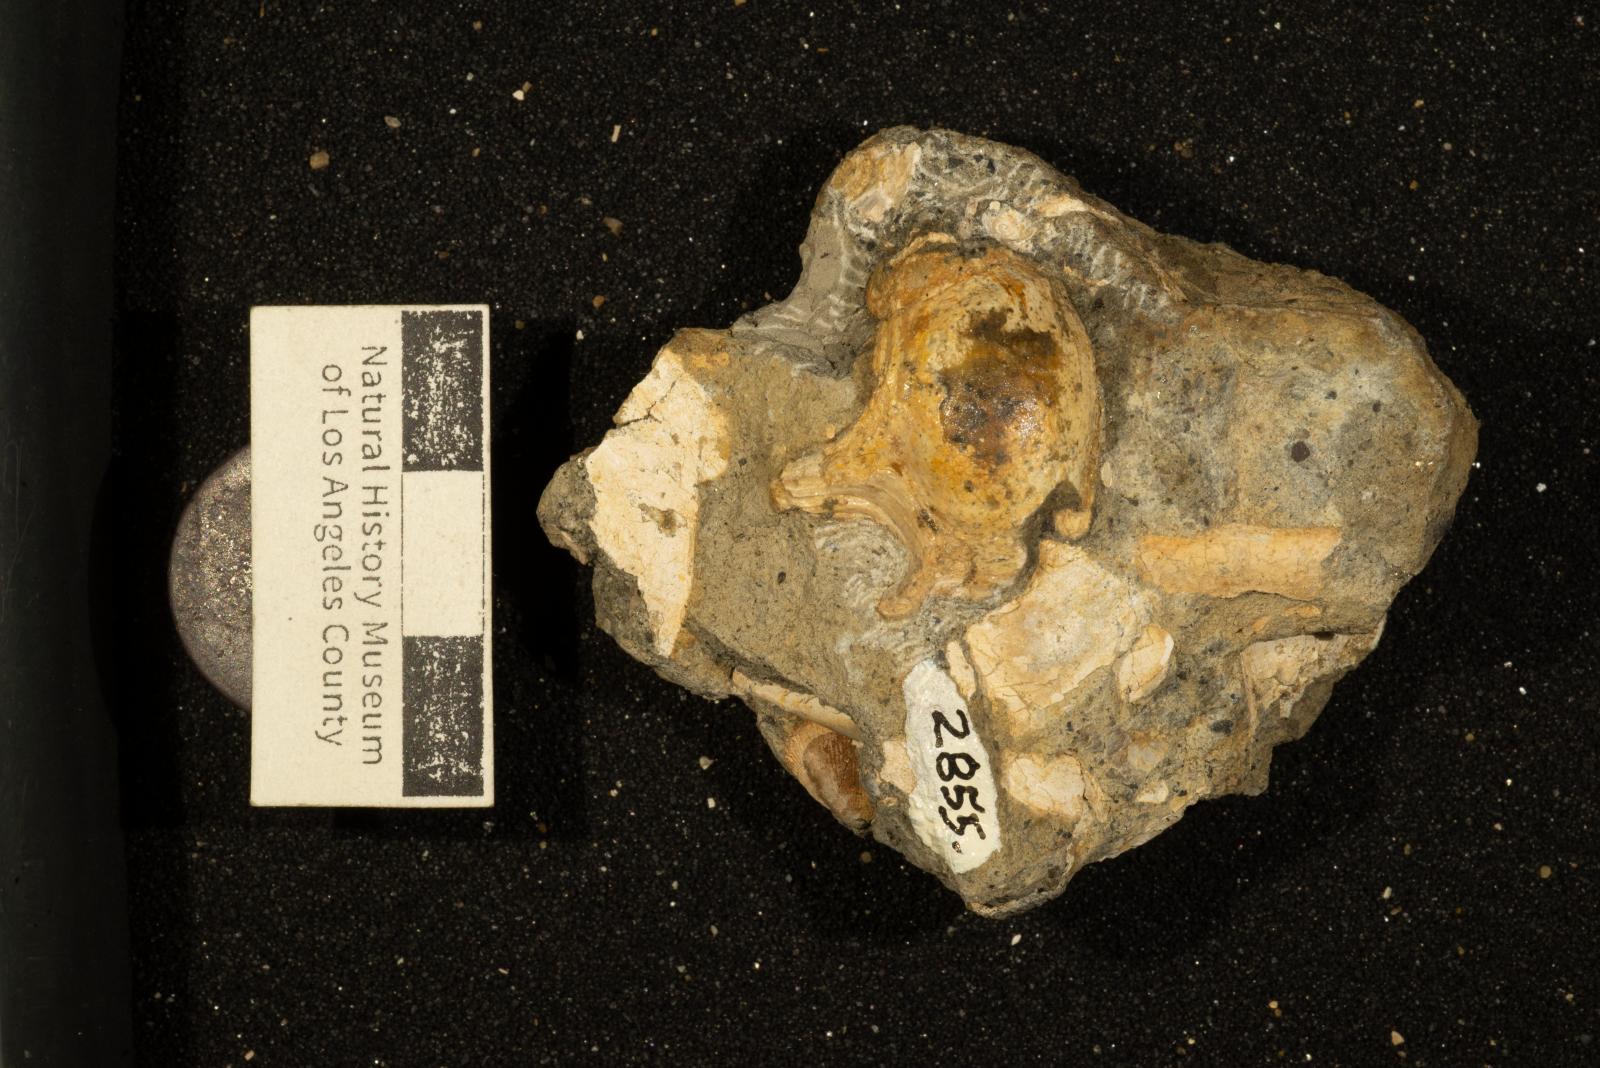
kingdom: Animalia
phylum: Mollusca
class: Gastropoda
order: Littorinimorpha
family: Aporrhaidae
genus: Lispodesthes
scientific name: Lispodesthes Pugnellus rotundus
